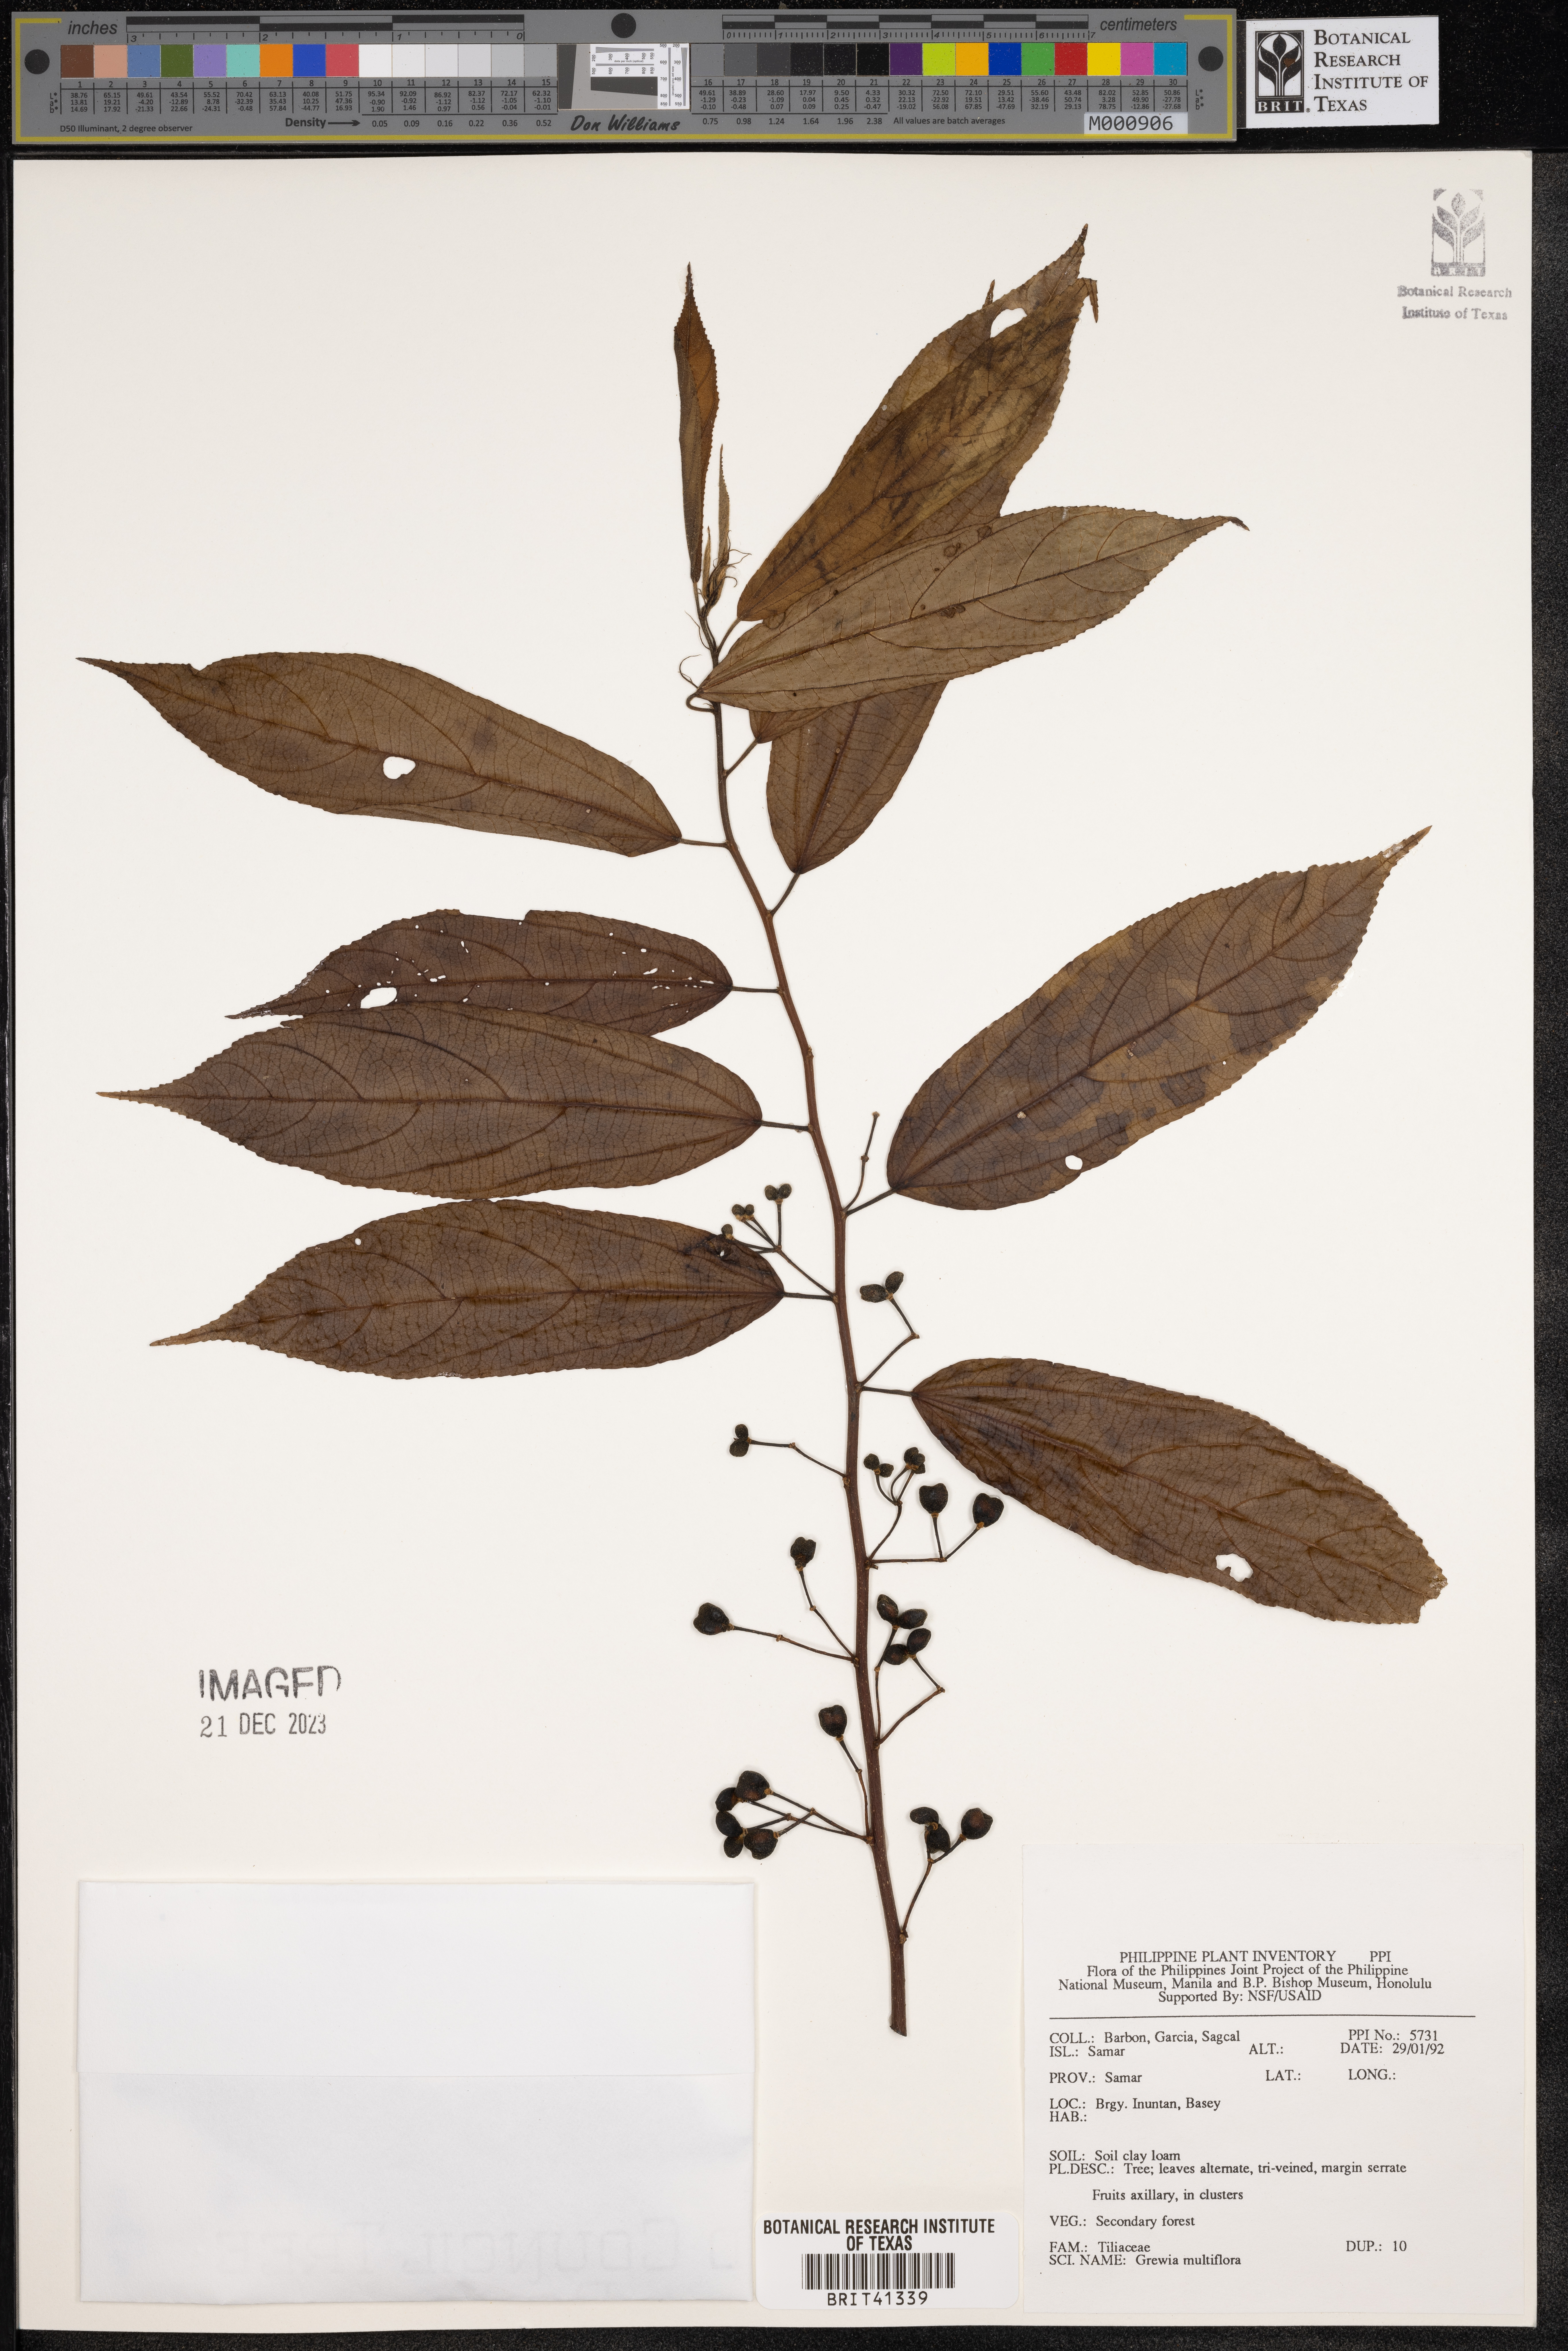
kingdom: Plantae
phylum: Tracheophyta
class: Magnoliopsida
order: Malvales
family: Malvaceae
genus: Grewia
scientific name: Grewia multiflora
